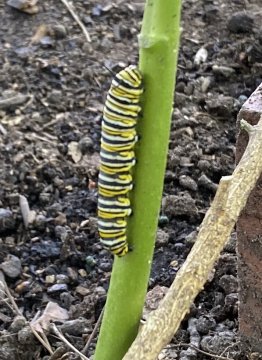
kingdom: Animalia
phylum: Arthropoda
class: Insecta
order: Lepidoptera
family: Nymphalidae
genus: Danaus
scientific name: Danaus plexippus
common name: Monarch
